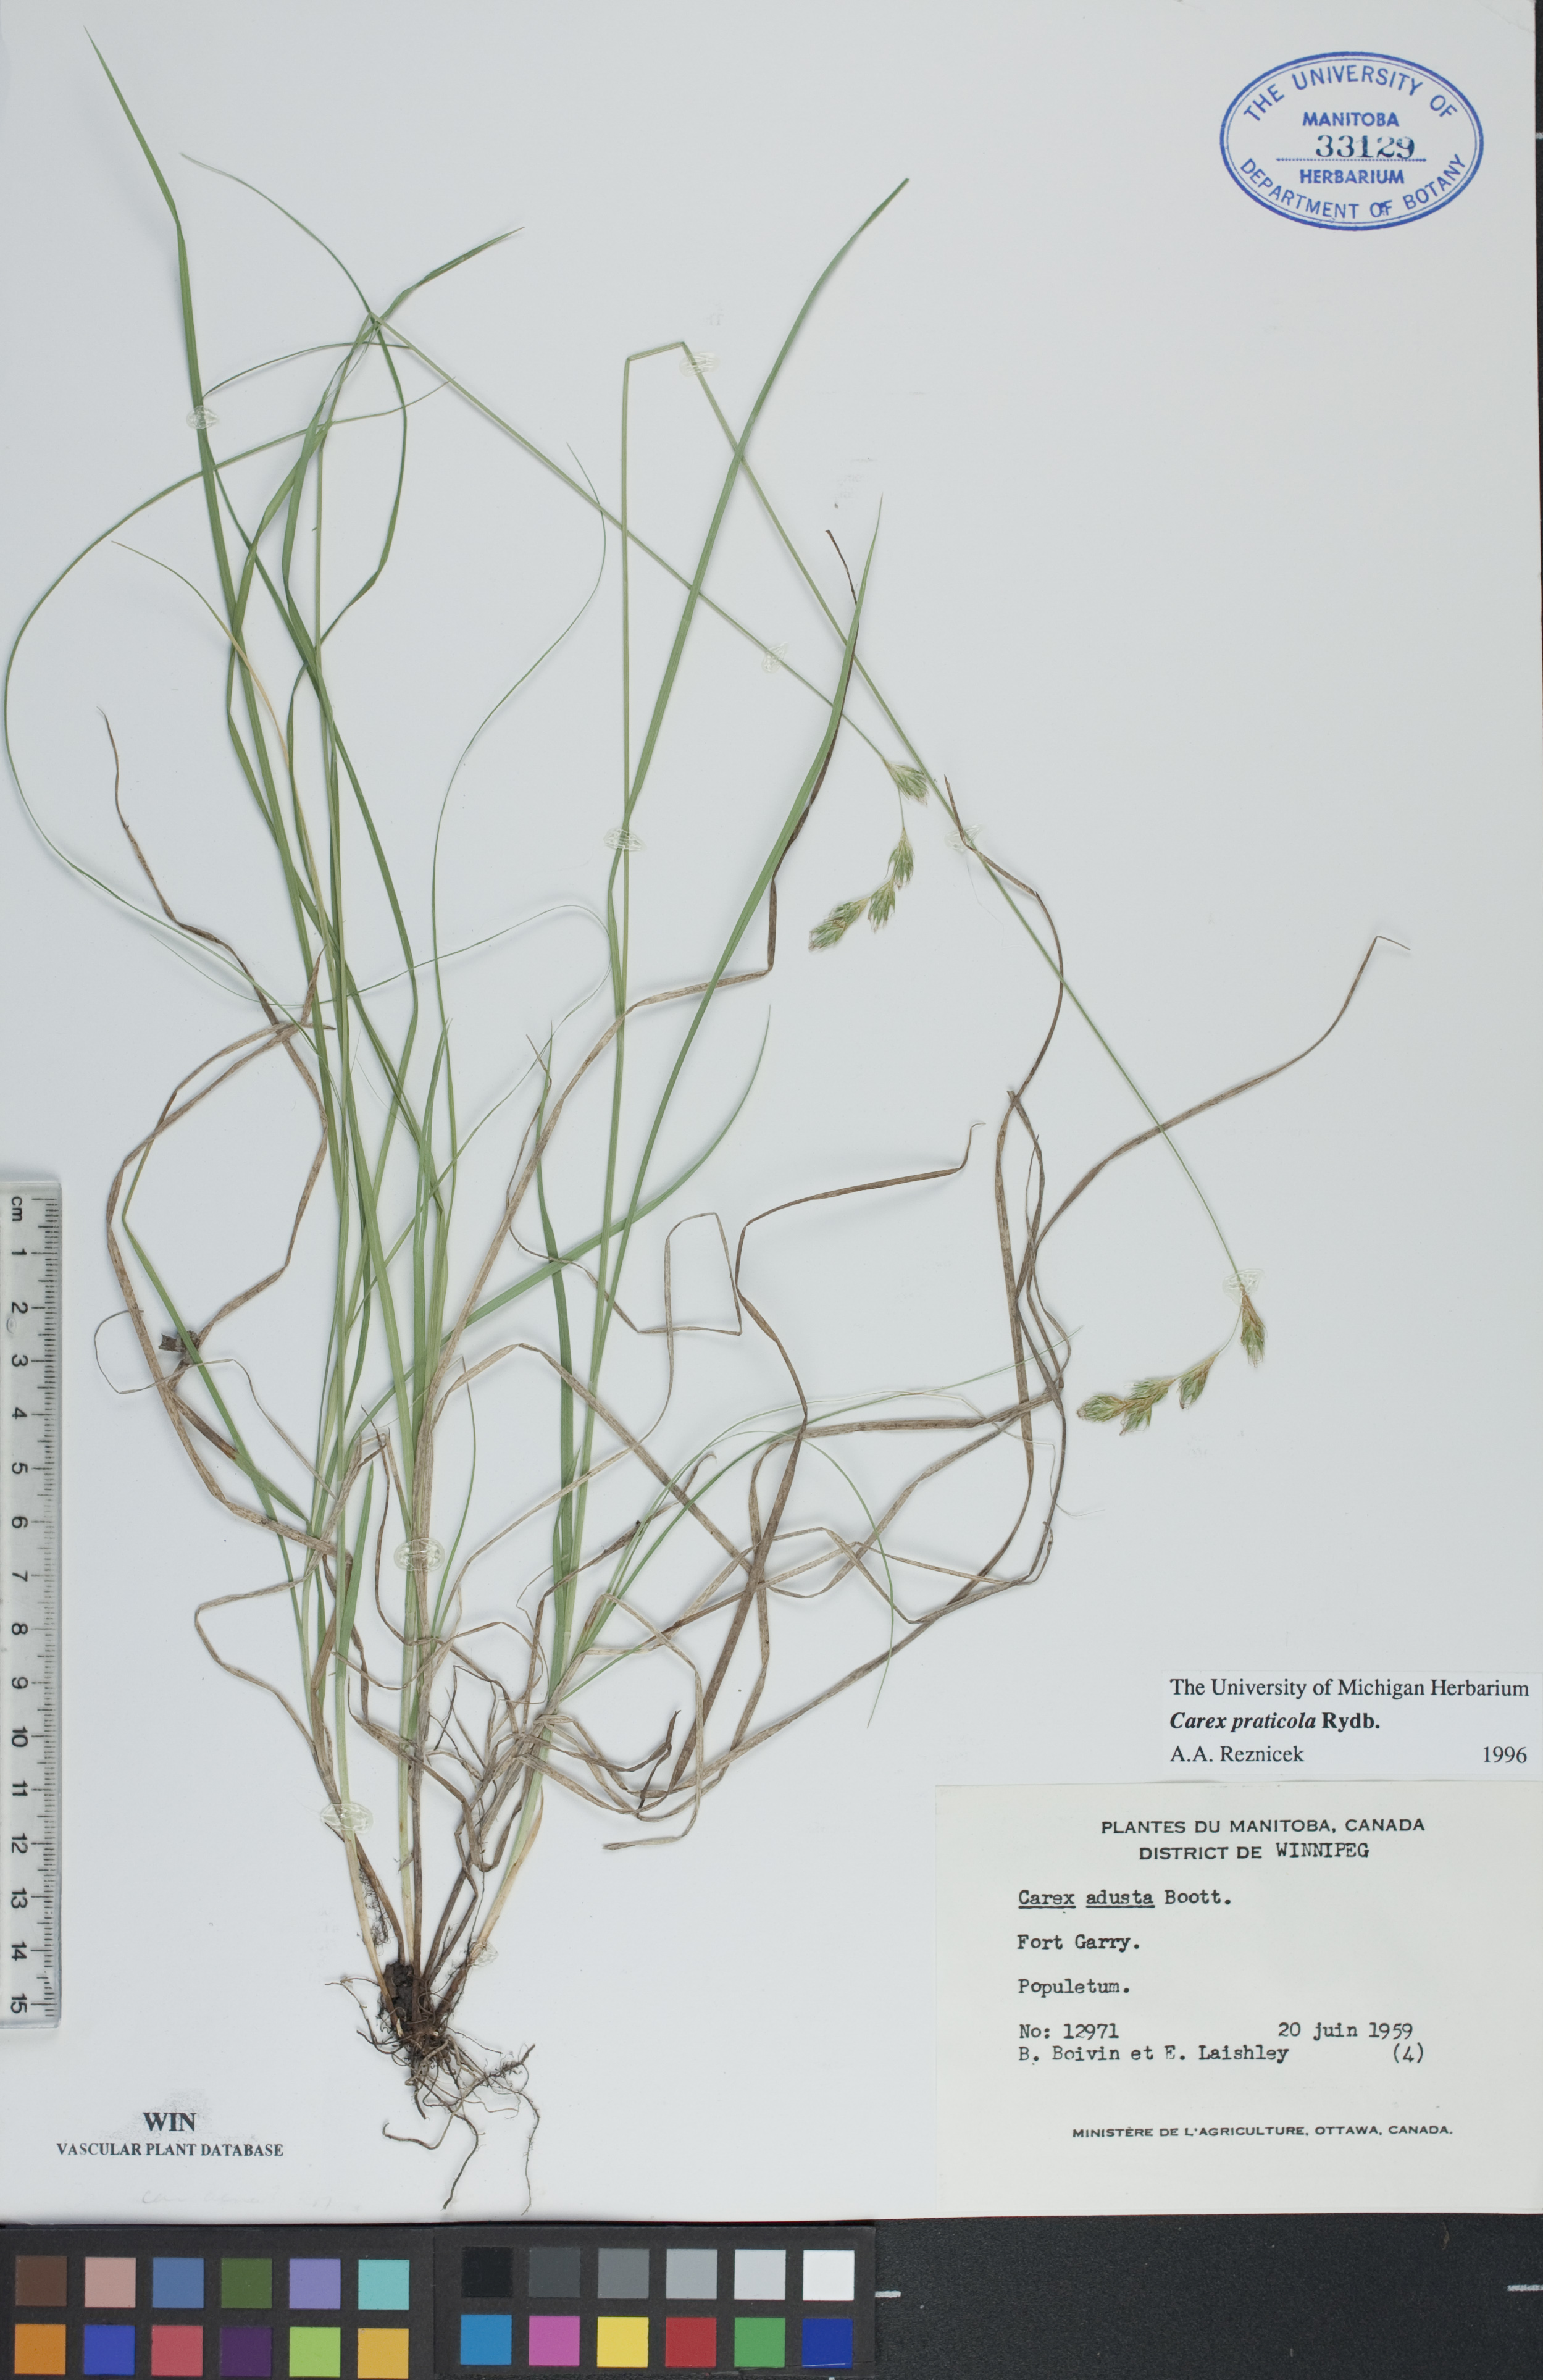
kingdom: Plantae
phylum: Tracheophyta
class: Liliopsida
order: Poales
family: Cyperaceae
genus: Carex
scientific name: Carex praticola
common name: Large-fruited oval sedge
